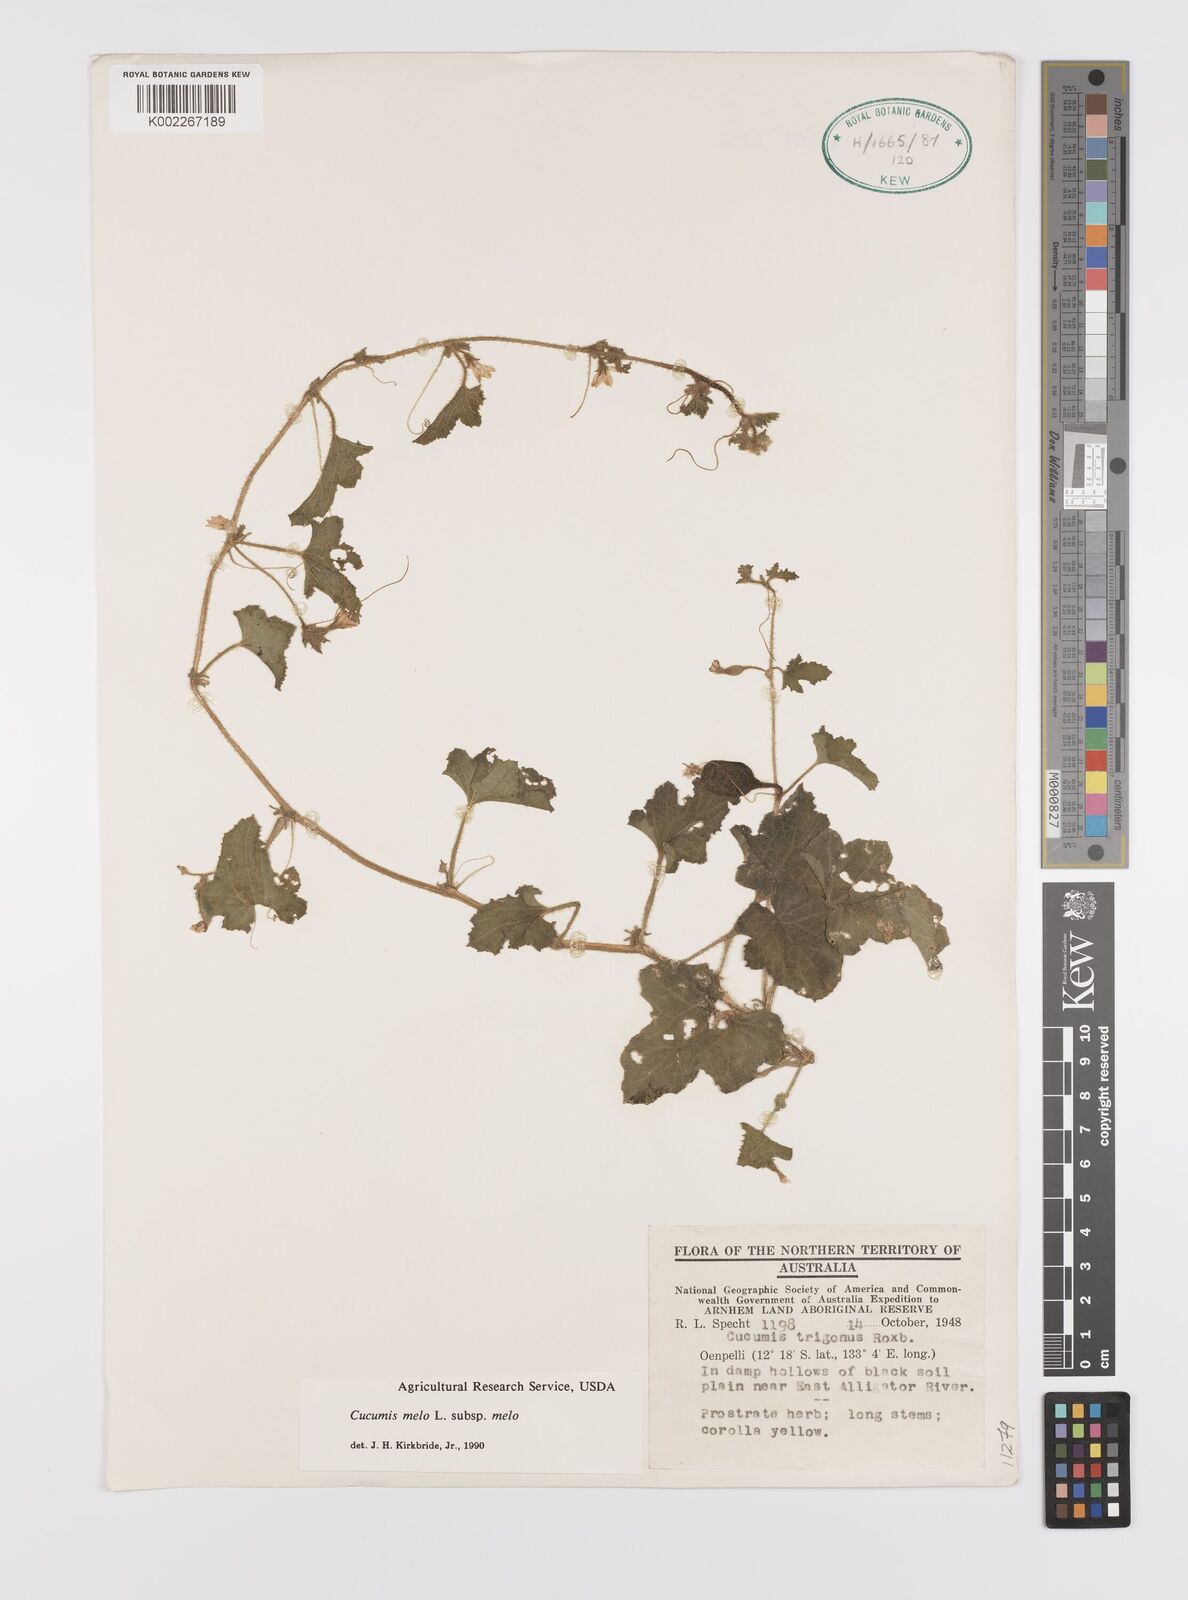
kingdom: Plantae
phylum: Tracheophyta
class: Magnoliopsida
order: Cucurbitales
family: Cucurbitaceae
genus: Cucumis
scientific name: Cucumis melo
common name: Melon
